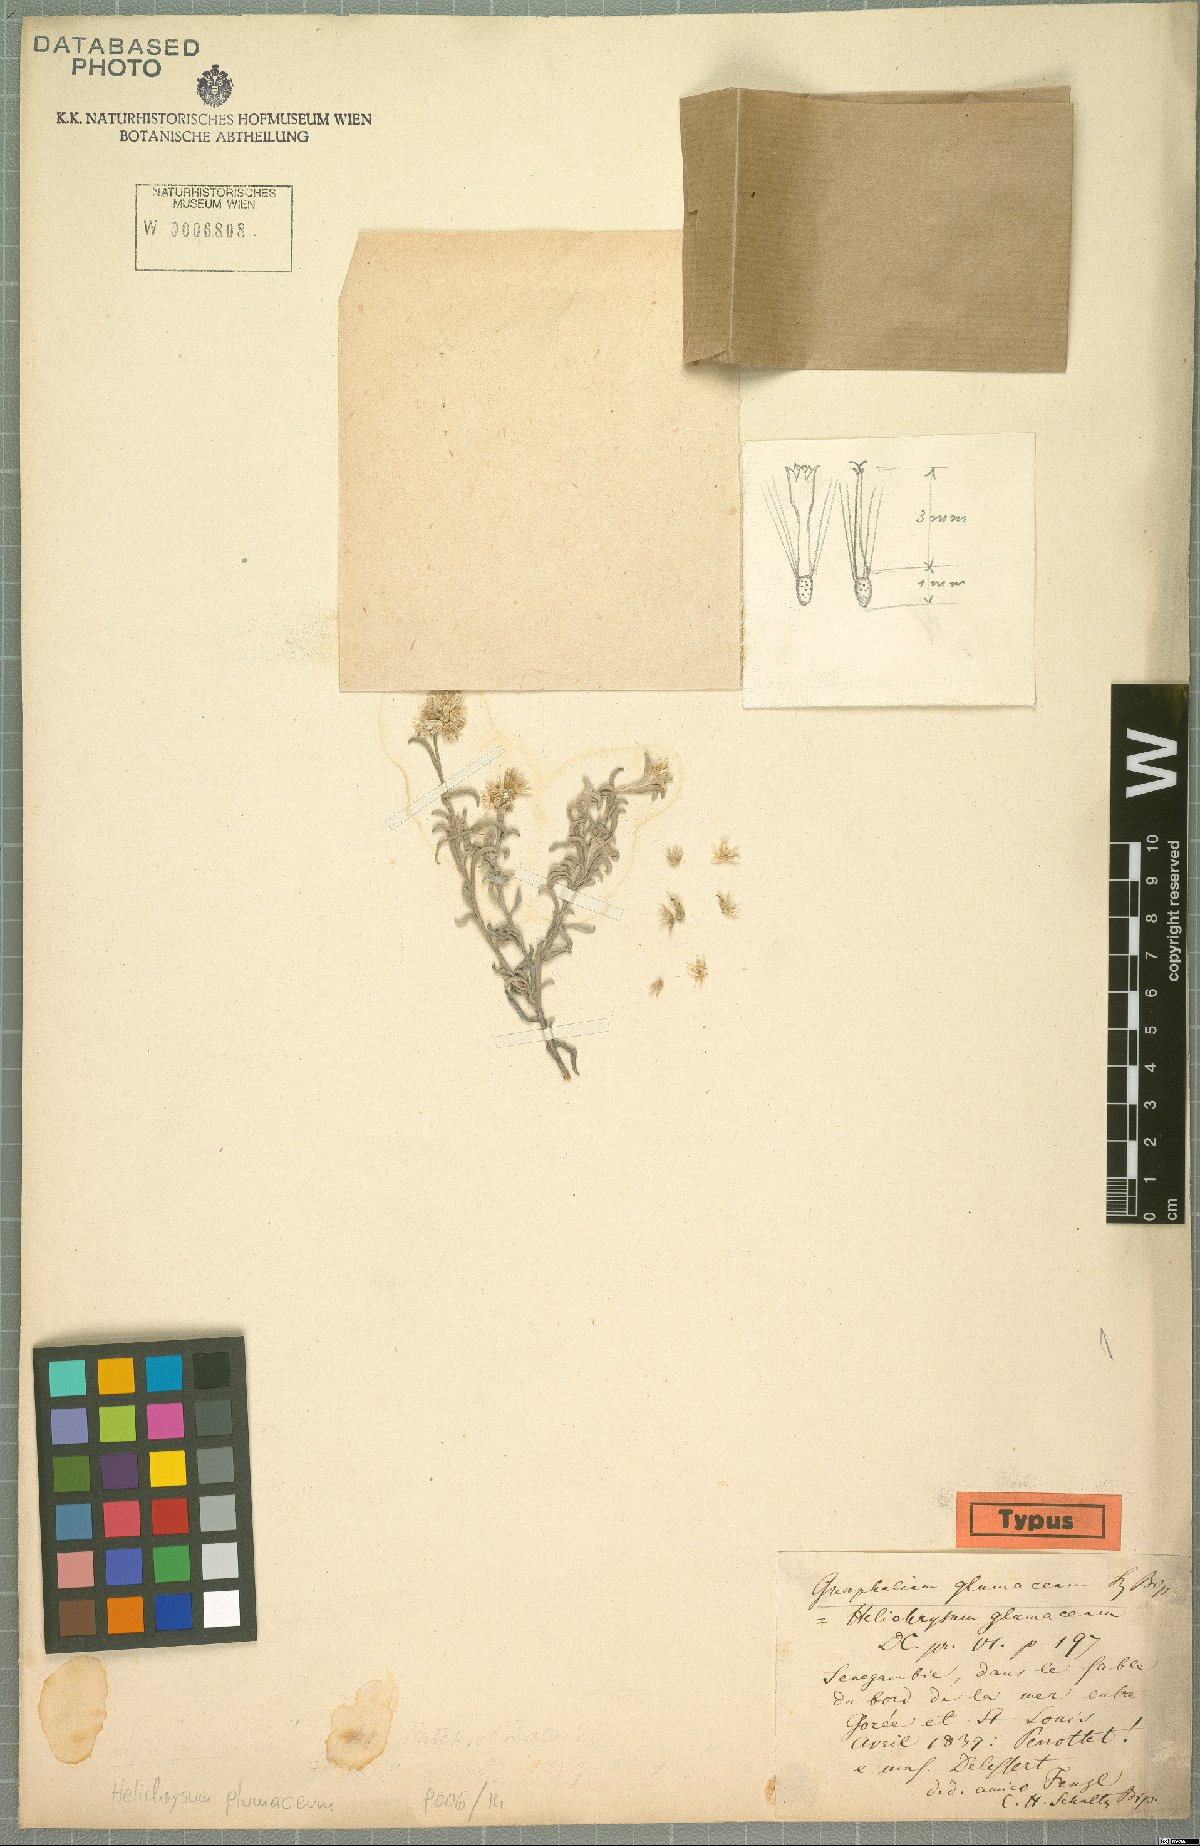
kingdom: Plantae
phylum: Tracheophyta
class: Magnoliopsida
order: Asterales
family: Asteraceae
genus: Helichrysum
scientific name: Helichrysum glumaceum
